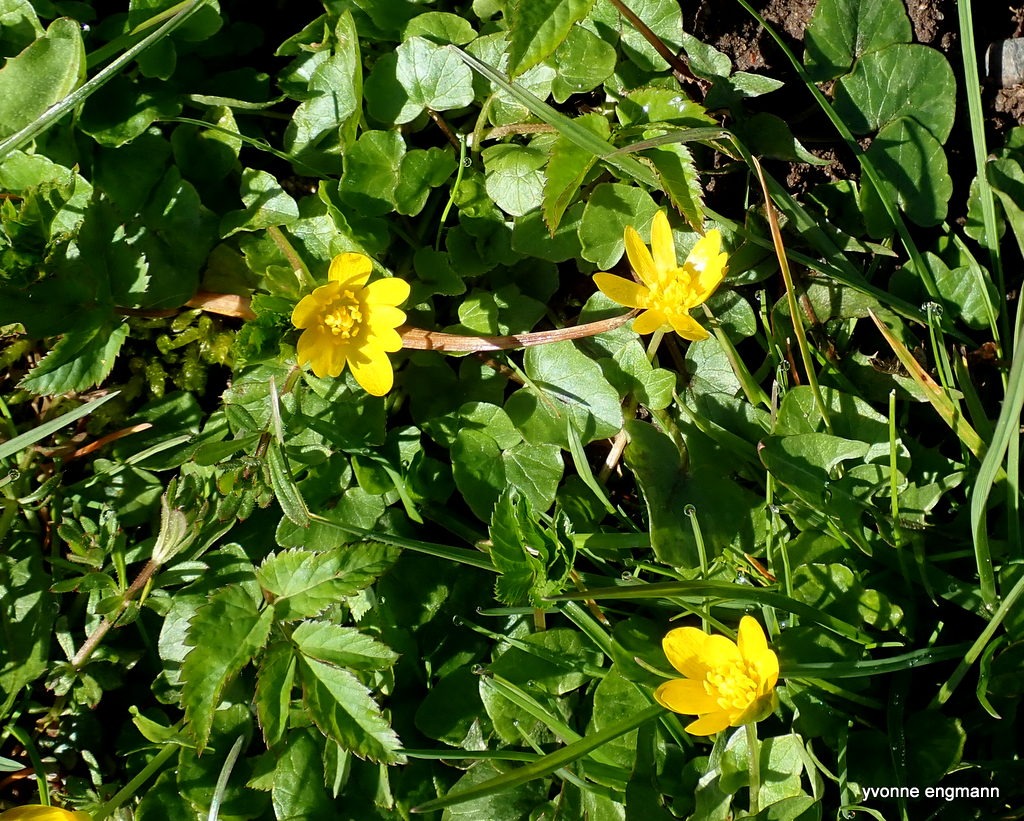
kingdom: Plantae
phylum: Tracheophyta
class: Magnoliopsida
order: Ranunculales
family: Ranunculaceae
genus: Ficaria
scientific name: Ficaria verna
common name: Vorterod
